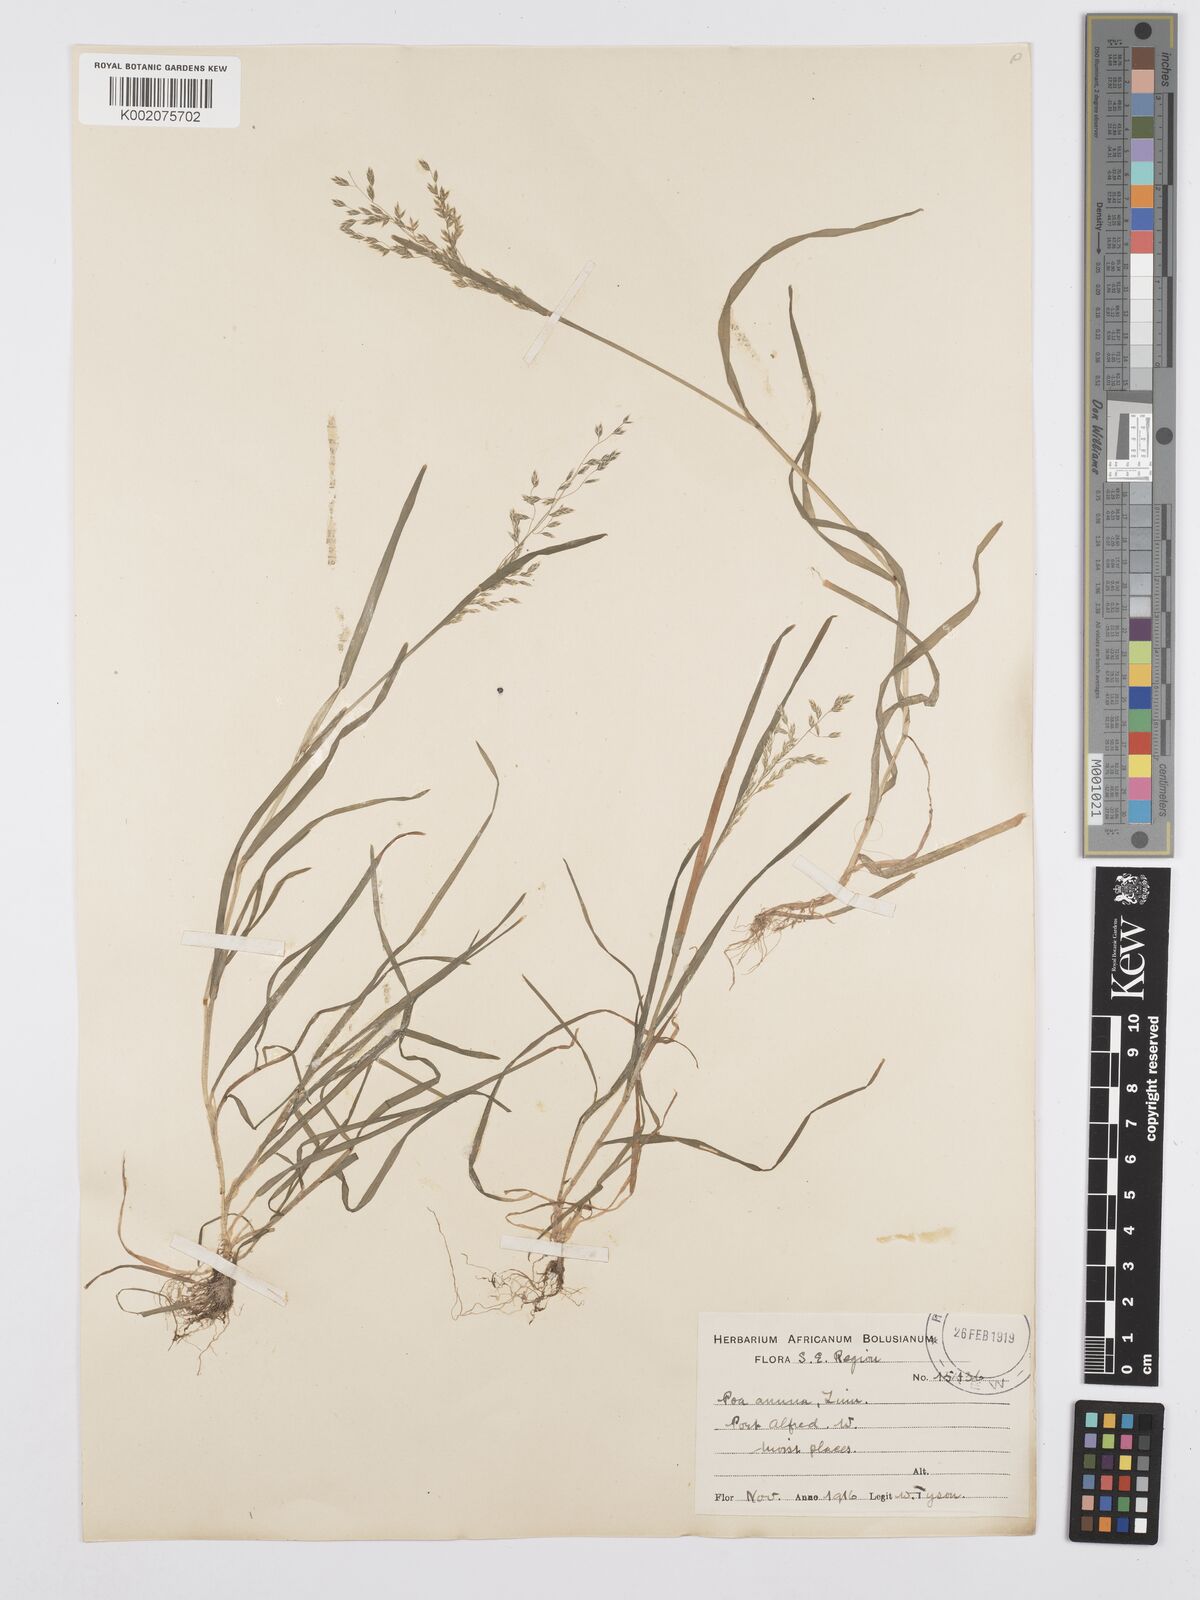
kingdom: Plantae
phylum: Tracheophyta
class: Liliopsida
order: Poales
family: Poaceae
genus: Poa
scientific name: Poa annua
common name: Annual bluegrass
